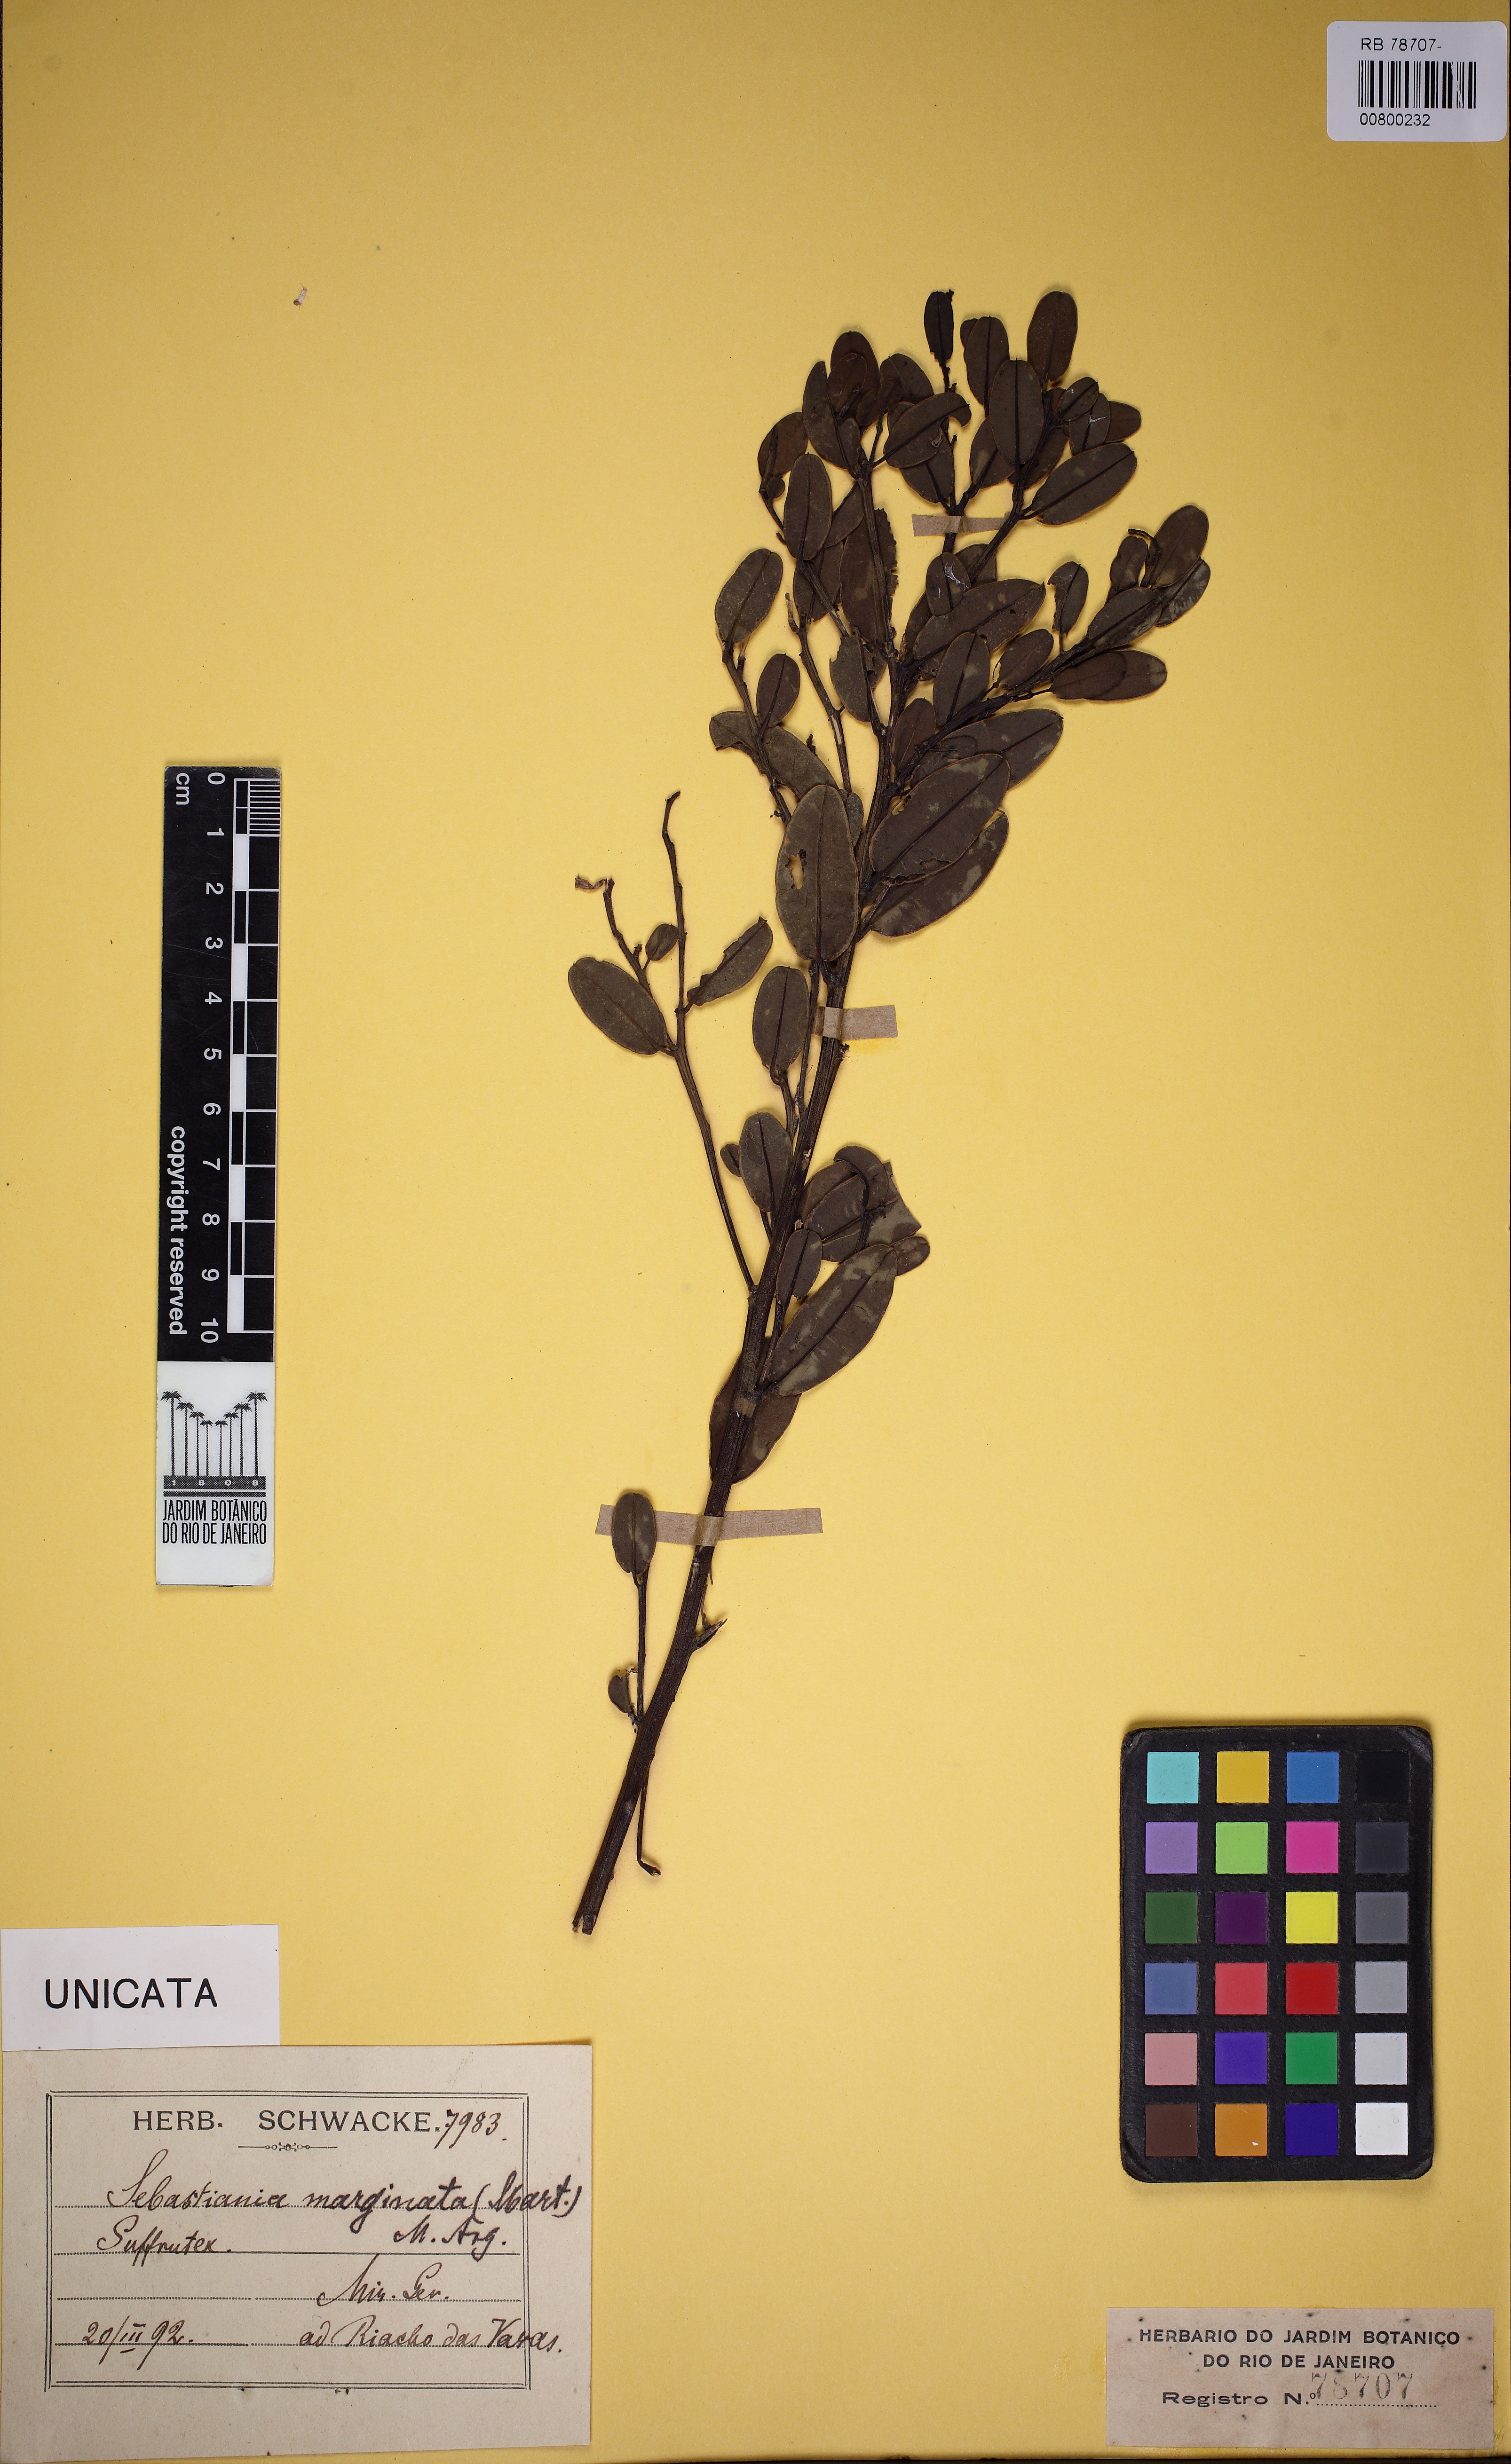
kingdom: Plantae
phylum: Tracheophyta
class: Magnoliopsida
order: Malpighiales
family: Euphorbiaceae
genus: Microstachys
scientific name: Microstachys marginata
